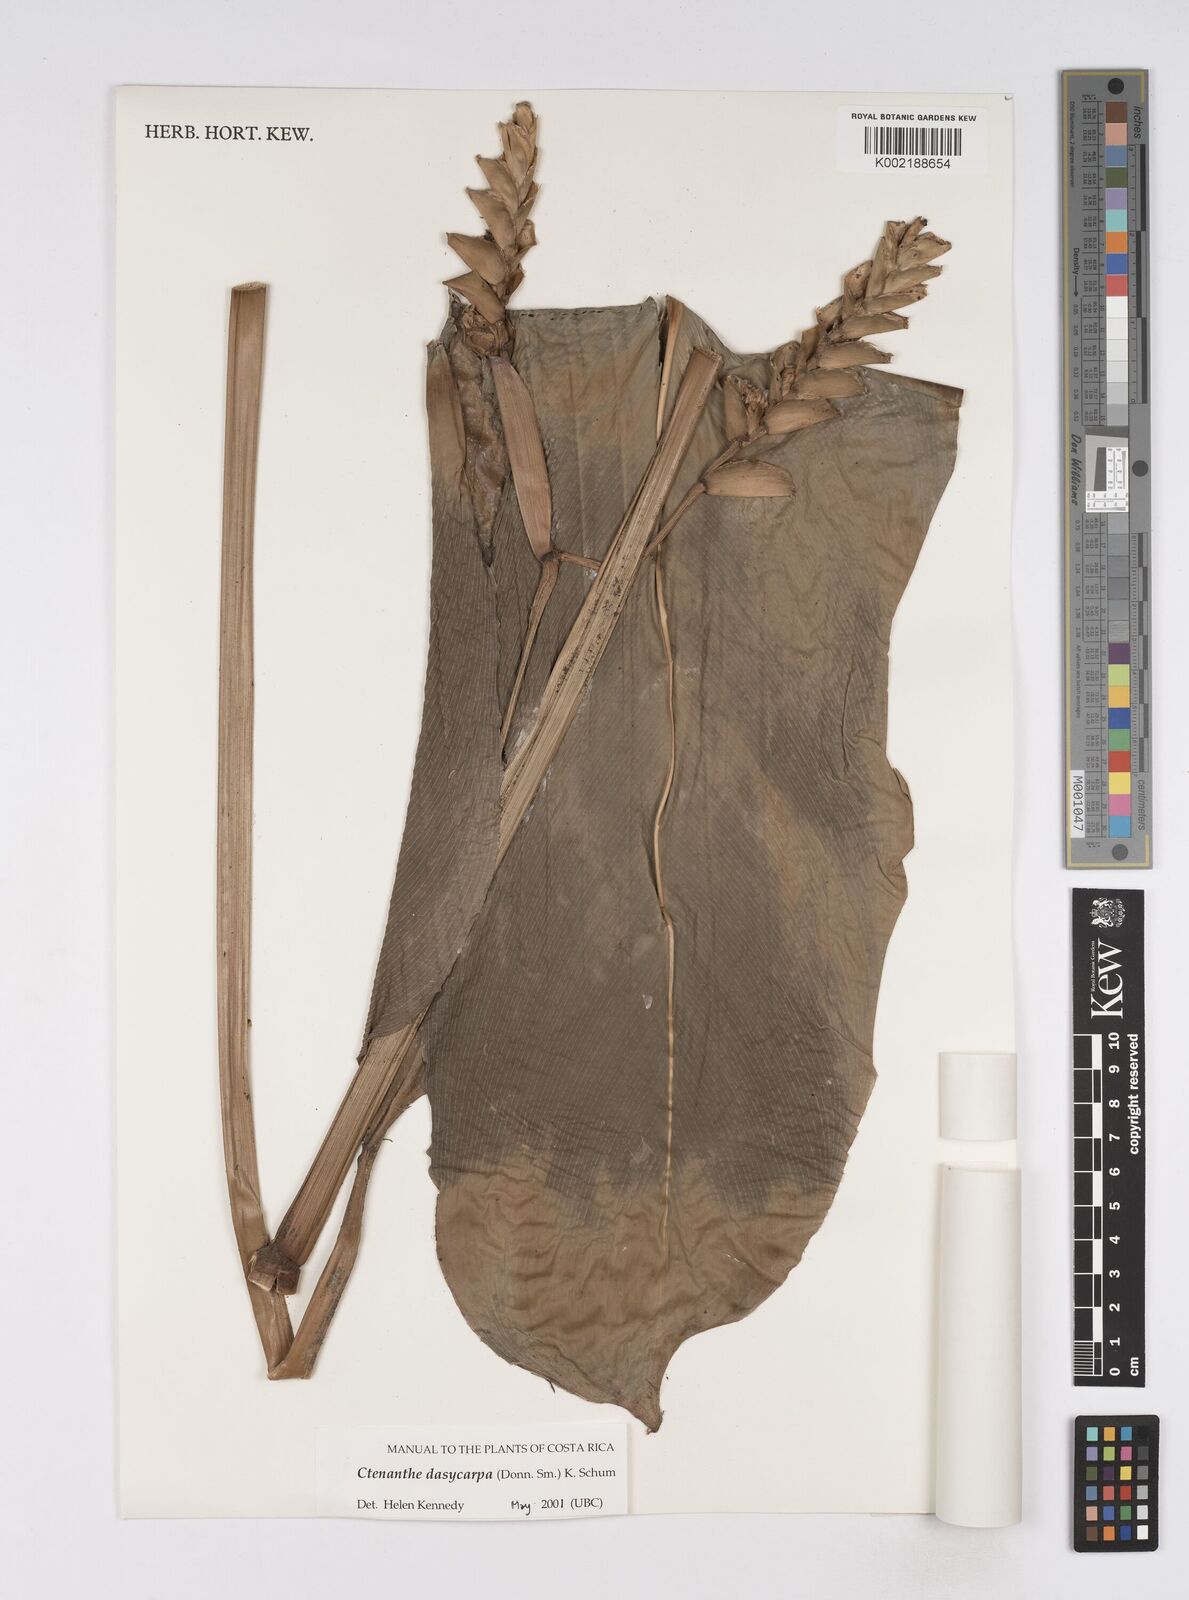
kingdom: Plantae
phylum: Tracheophyta
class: Liliopsida
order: Zingiberales
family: Marantaceae
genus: Ctenanthe
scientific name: Ctenanthe dasycarpa
